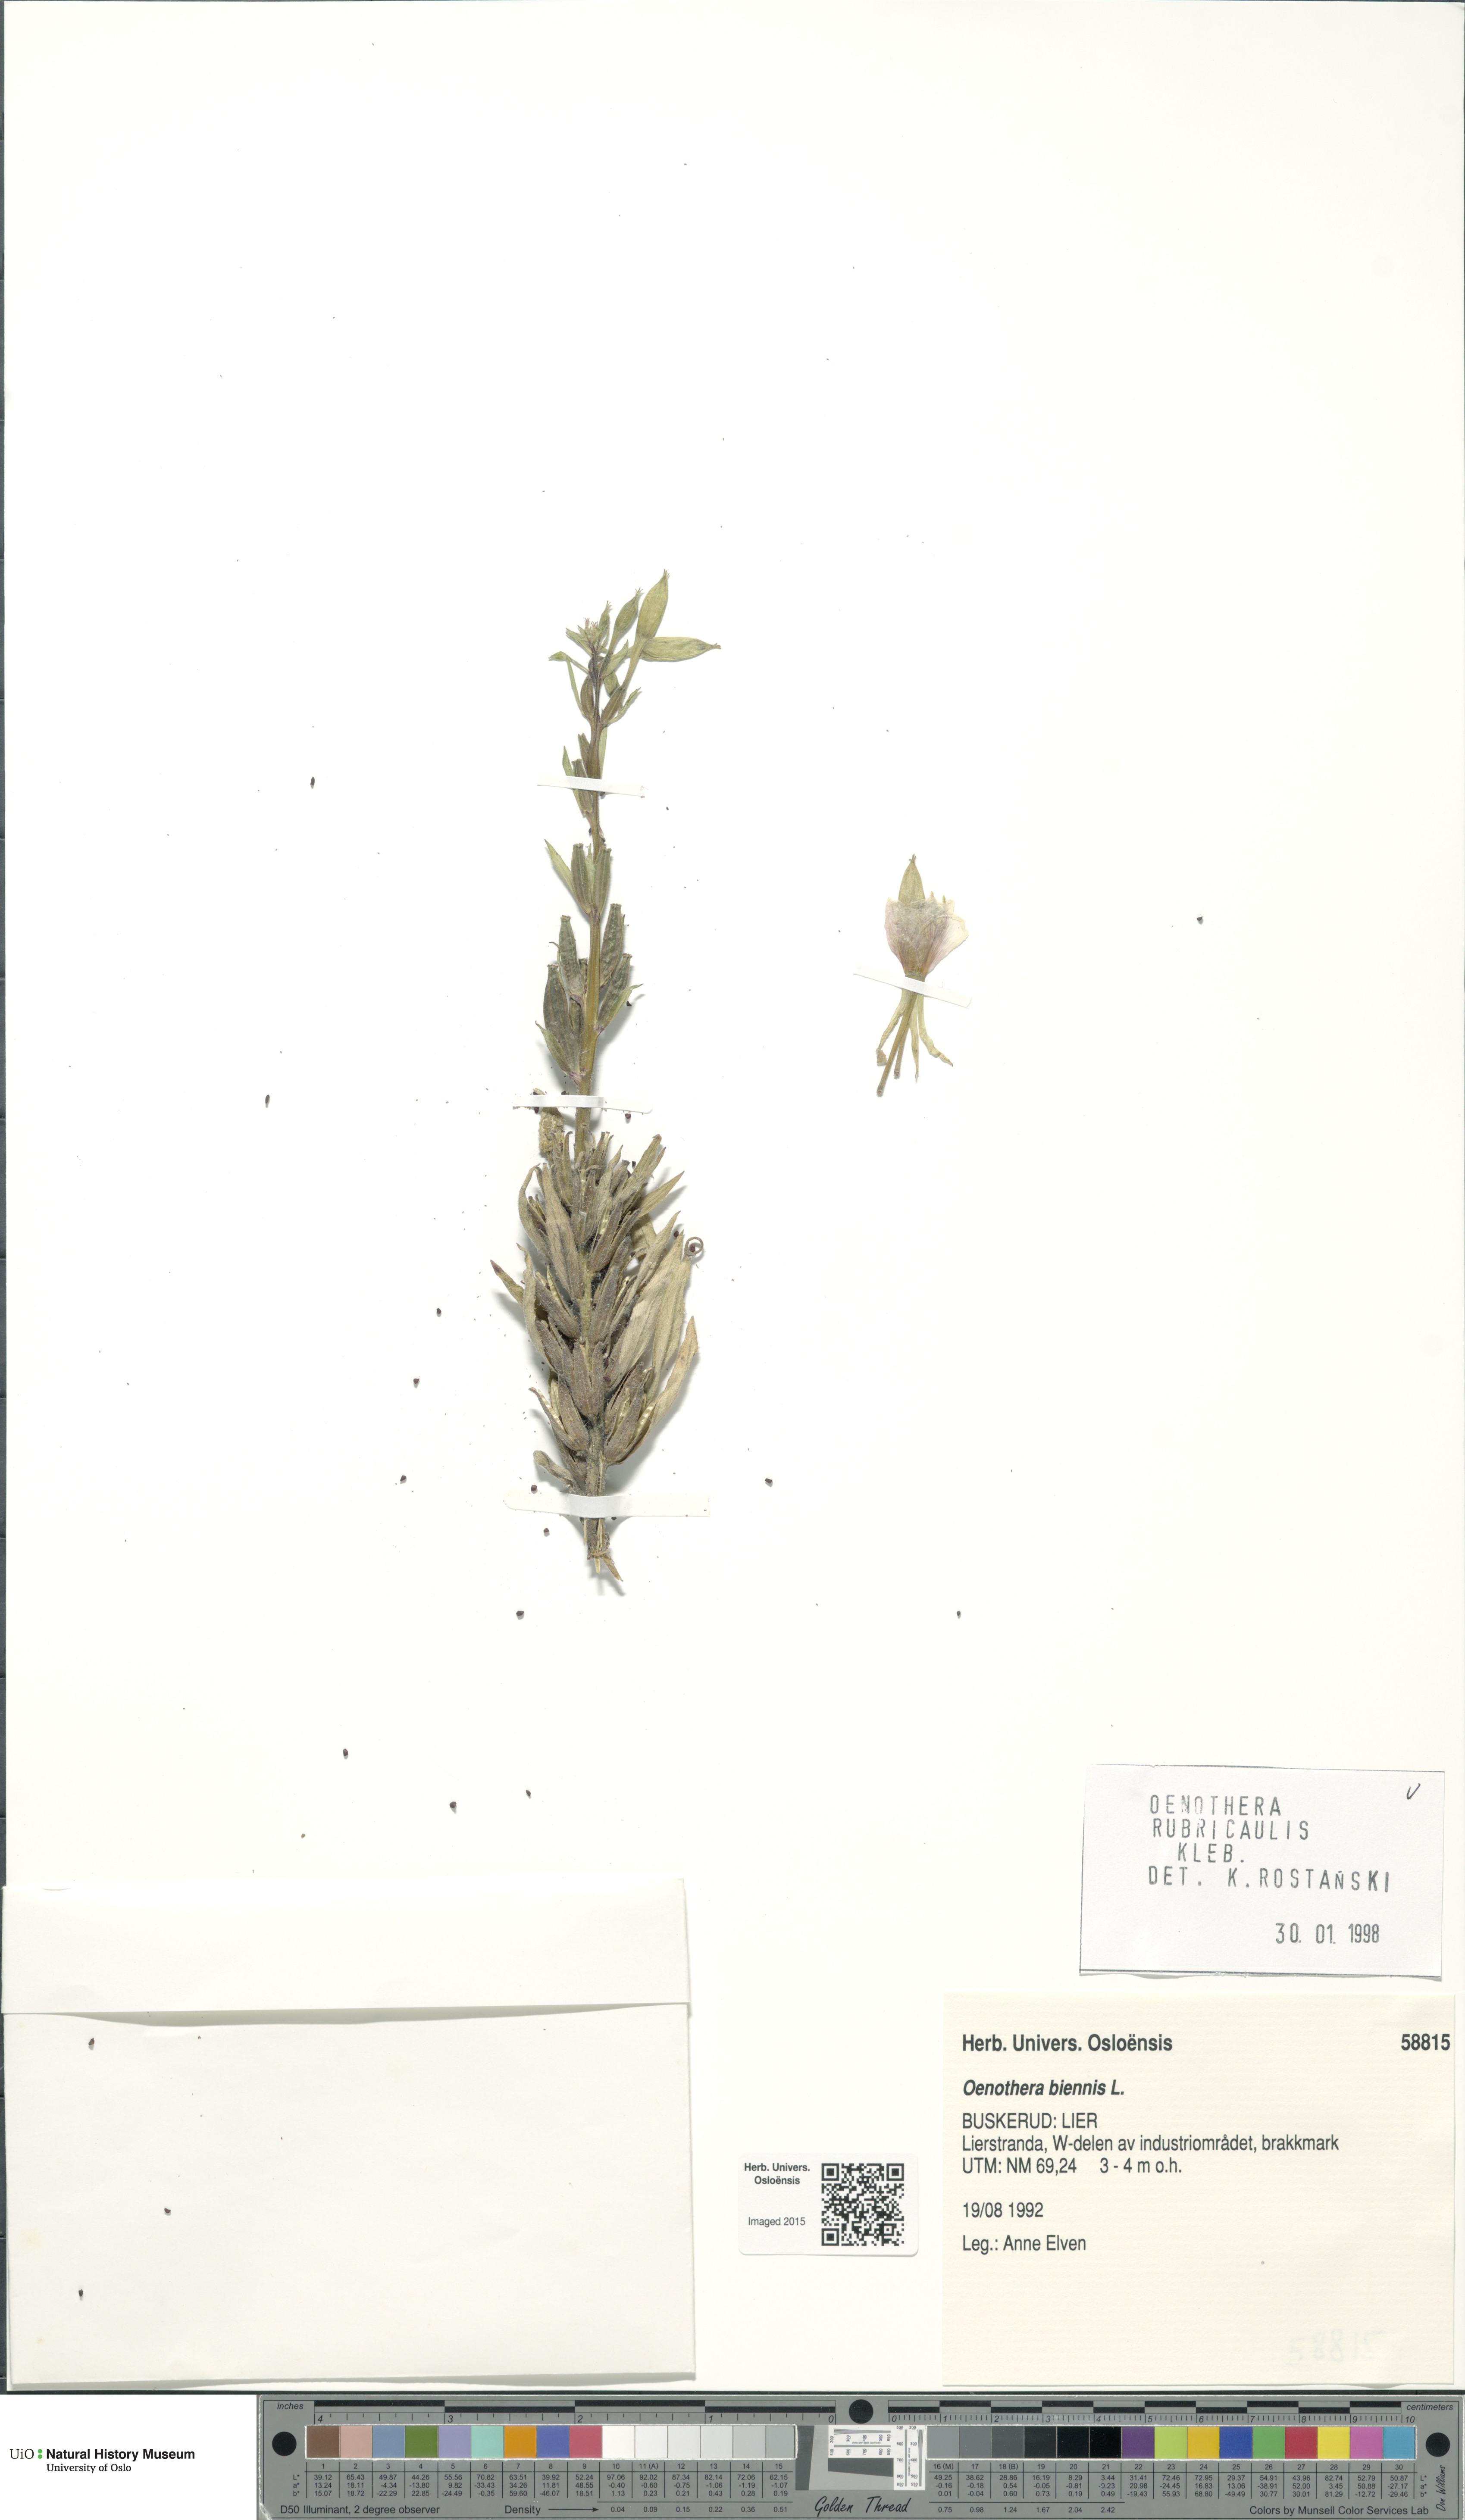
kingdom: Plantae
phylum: Tracheophyta
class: Magnoliopsida
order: Myrtales
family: Onagraceae
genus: Oenothera
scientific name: Oenothera biennis
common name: Common evening-primrose
